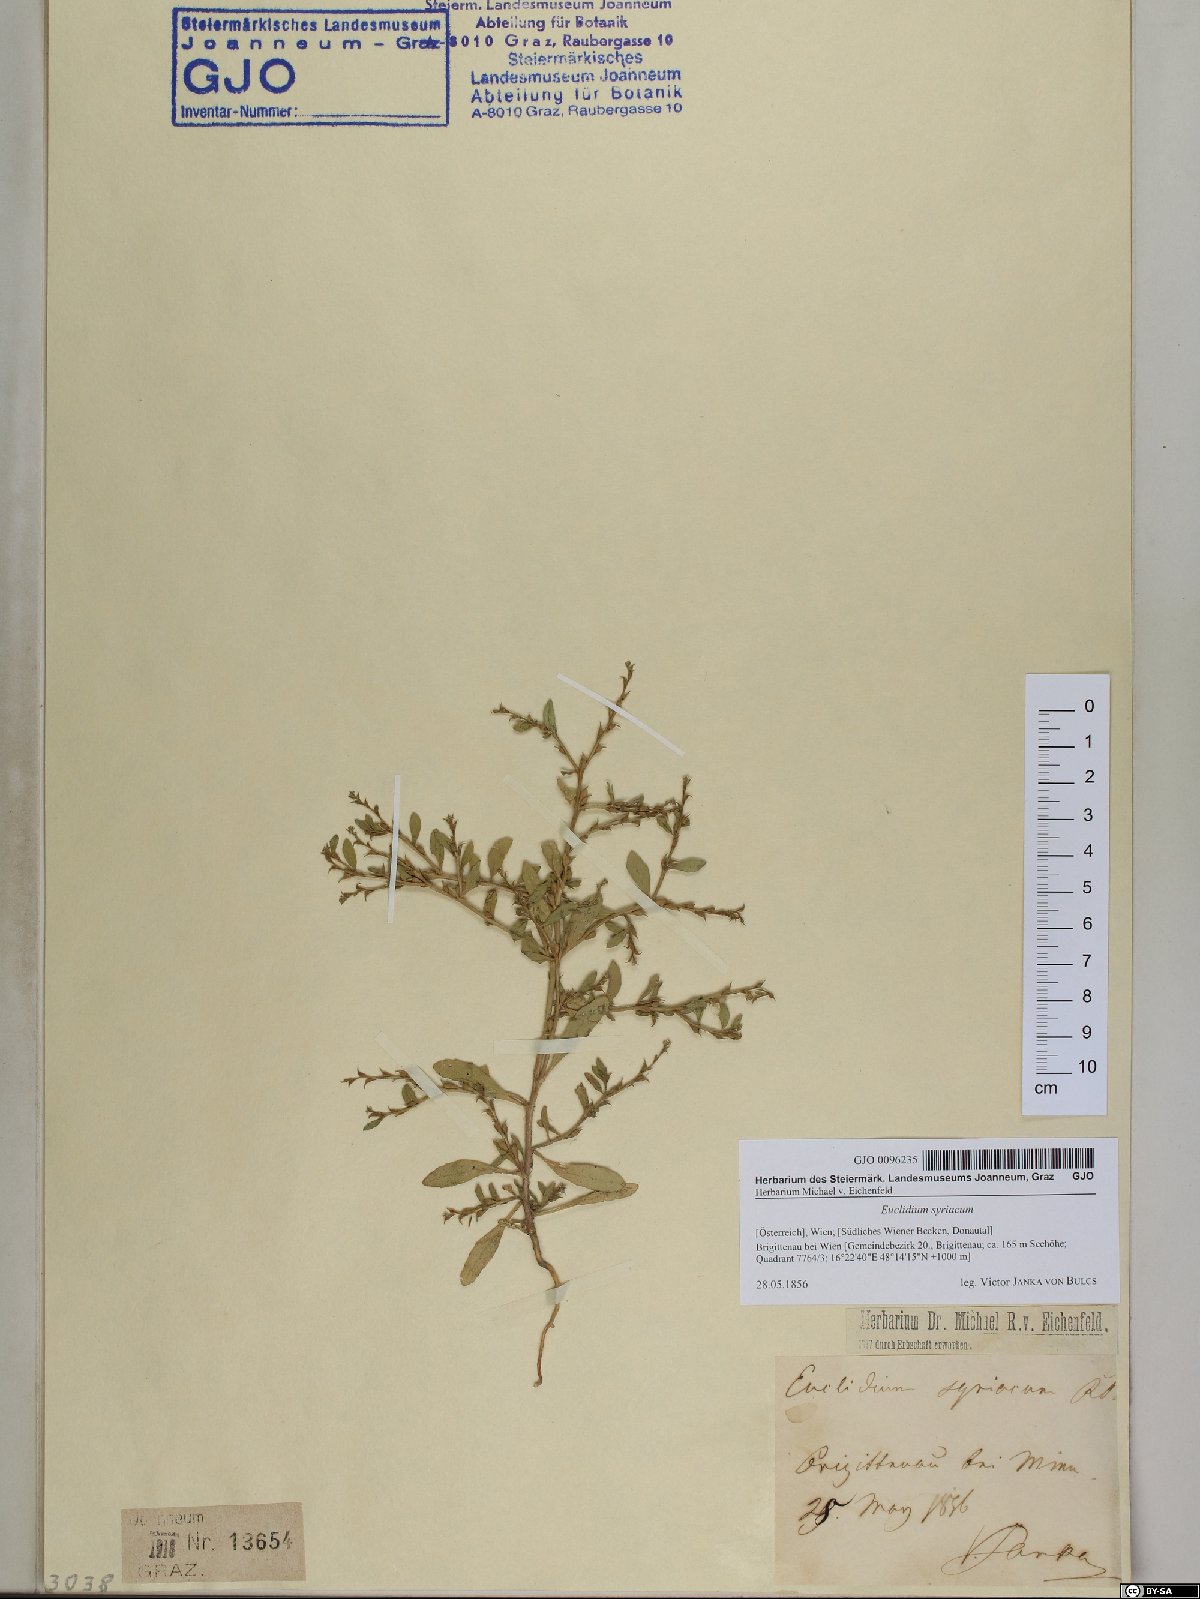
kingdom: Plantae
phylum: Tracheophyta
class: Magnoliopsida
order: Brassicales
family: Brassicaceae
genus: Euclidium
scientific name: Euclidium syriacum
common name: Syrian mustard
